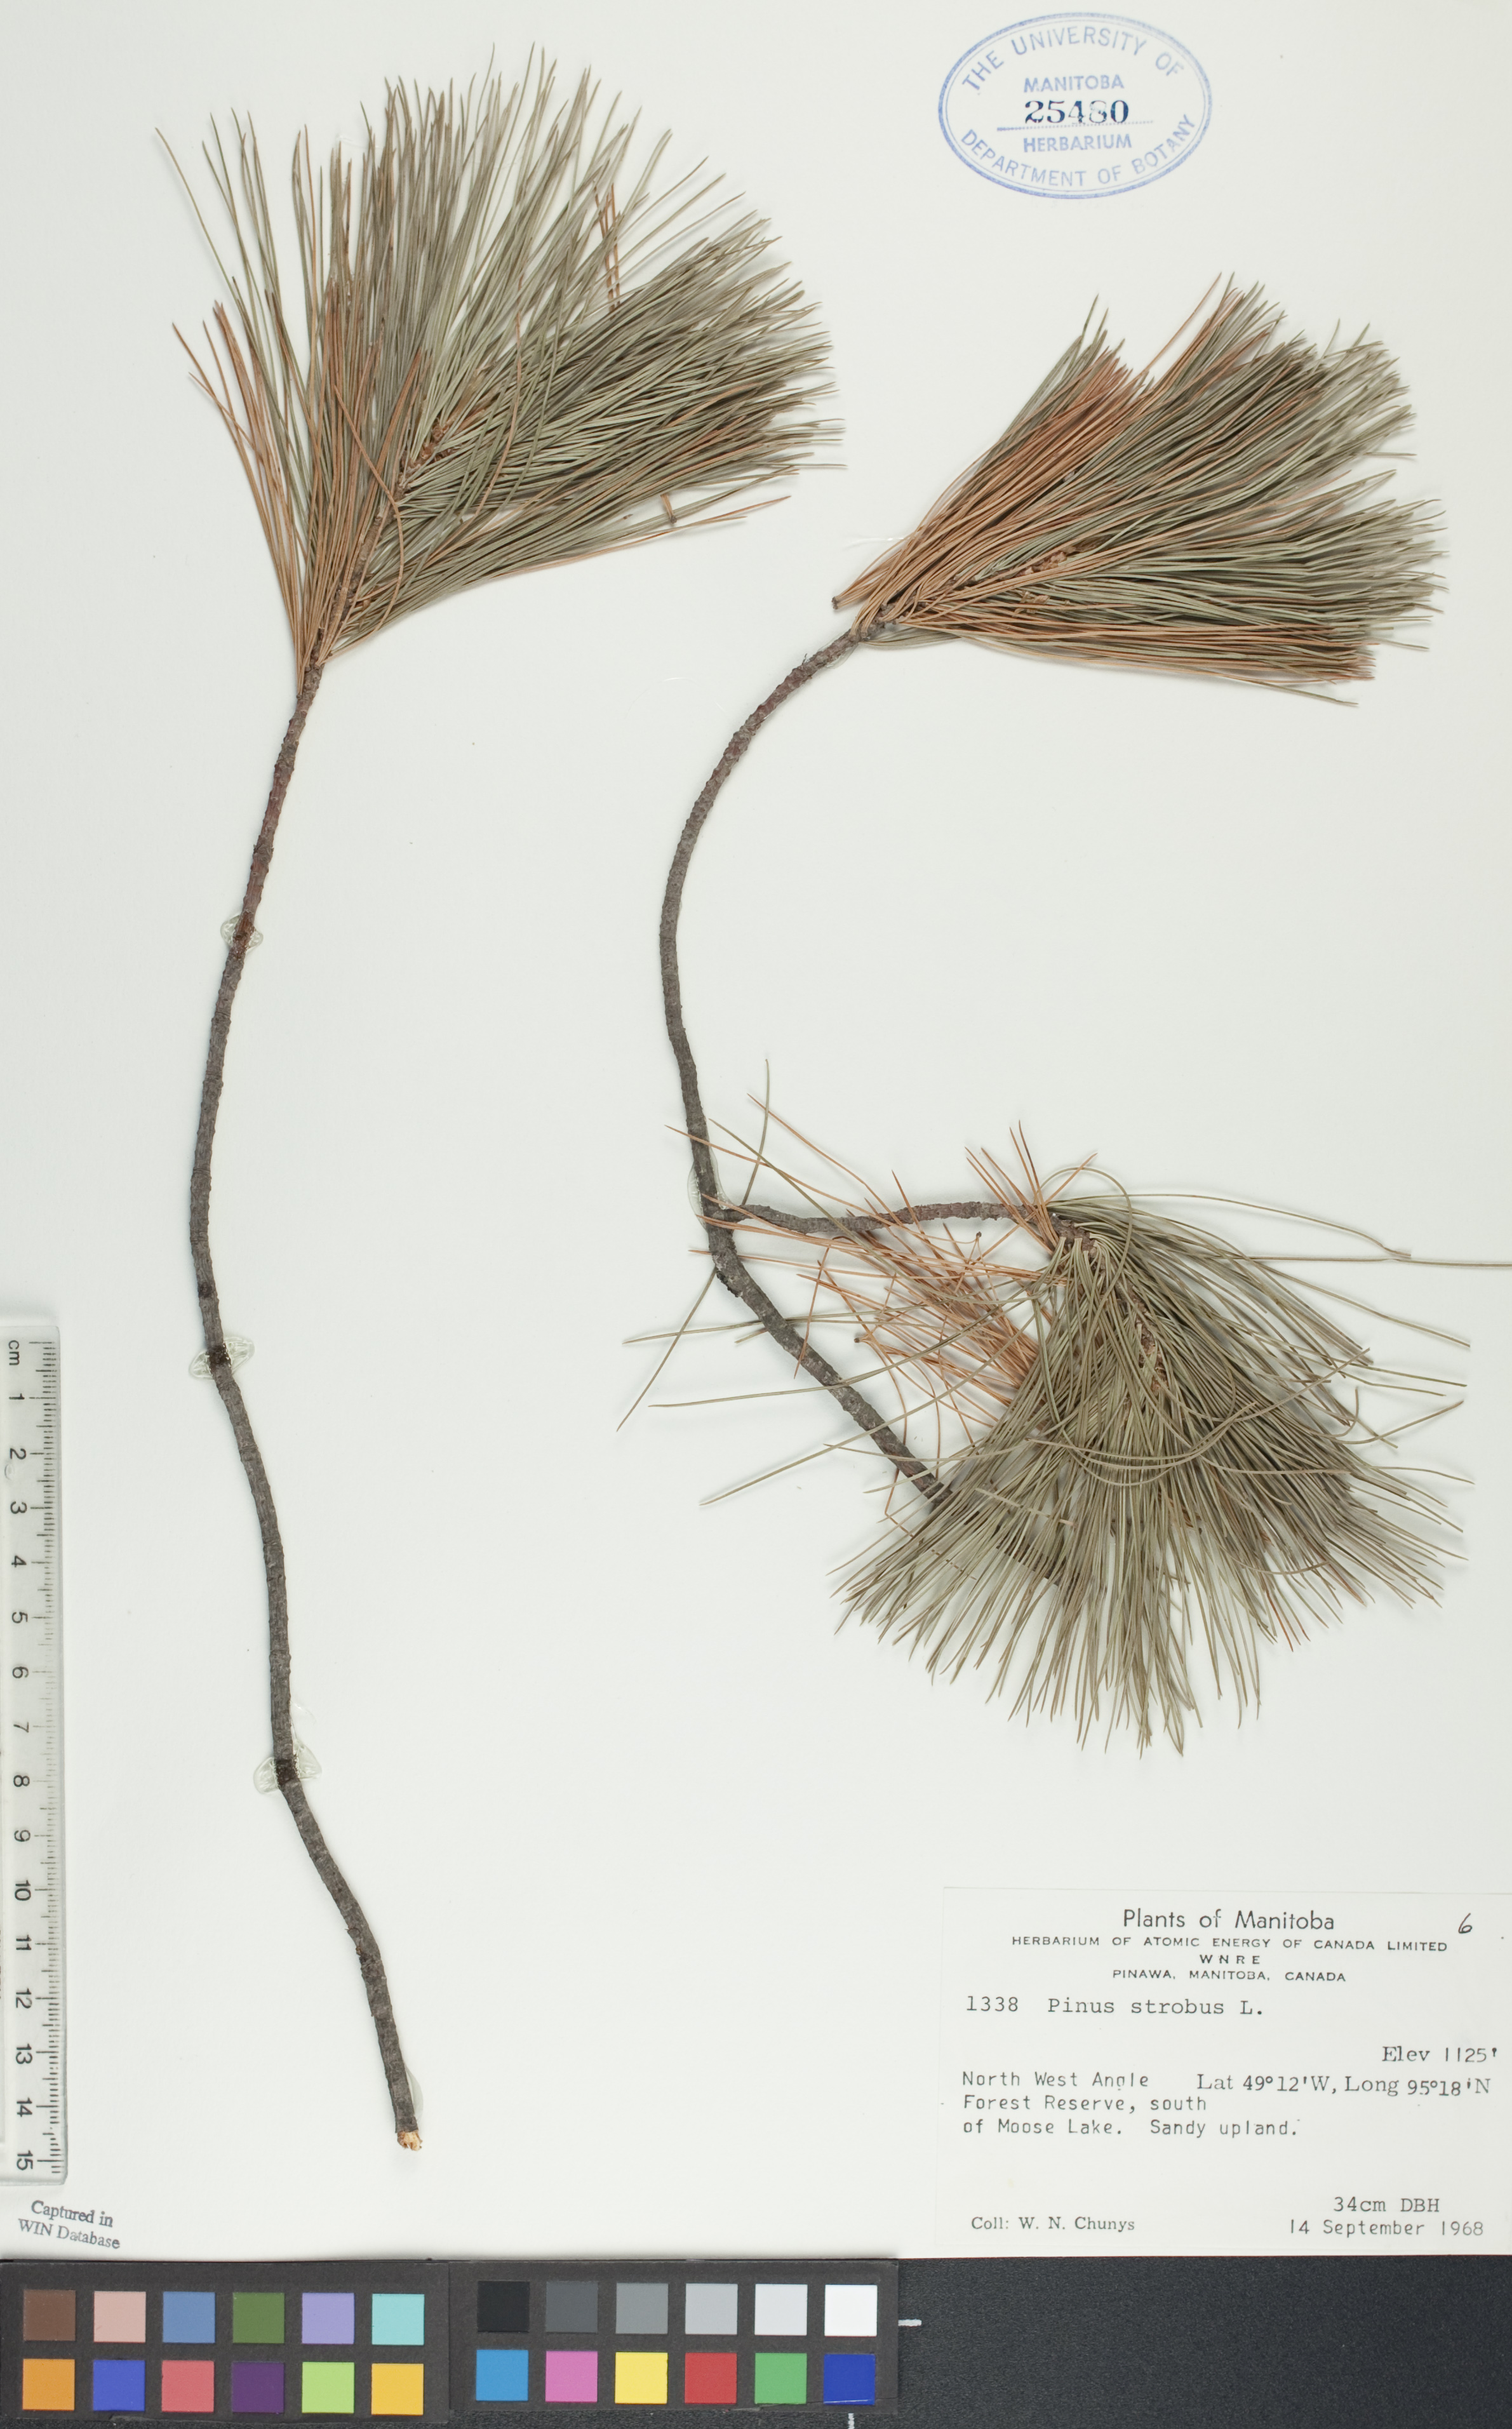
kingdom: Plantae
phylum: Tracheophyta
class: Pinopsida
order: Pinales
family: Pinaceae
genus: Pinus
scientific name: Pinus strobus
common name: Weymouth pine
